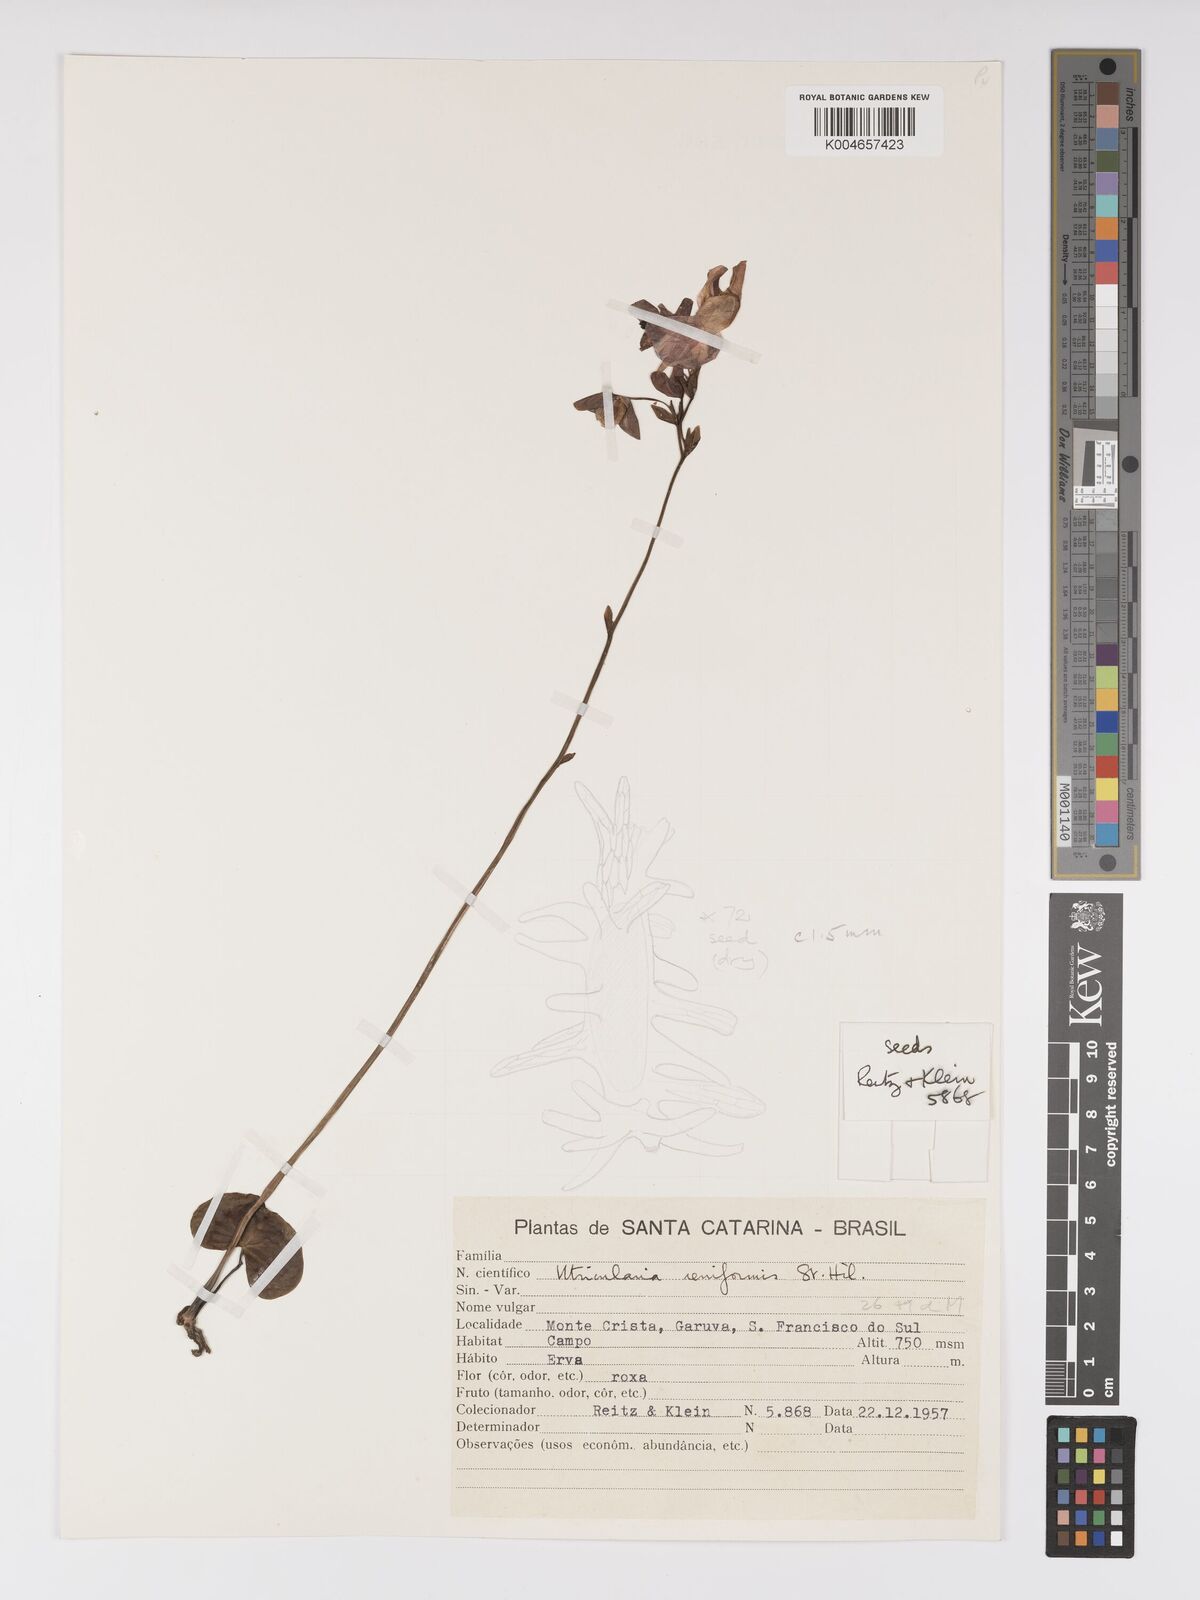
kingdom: Plantae
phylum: Tracheophyta
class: Magnoliopsida
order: Lamiales
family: Lentibulariaceae
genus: Utricularia
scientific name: Utricularia reniformis
